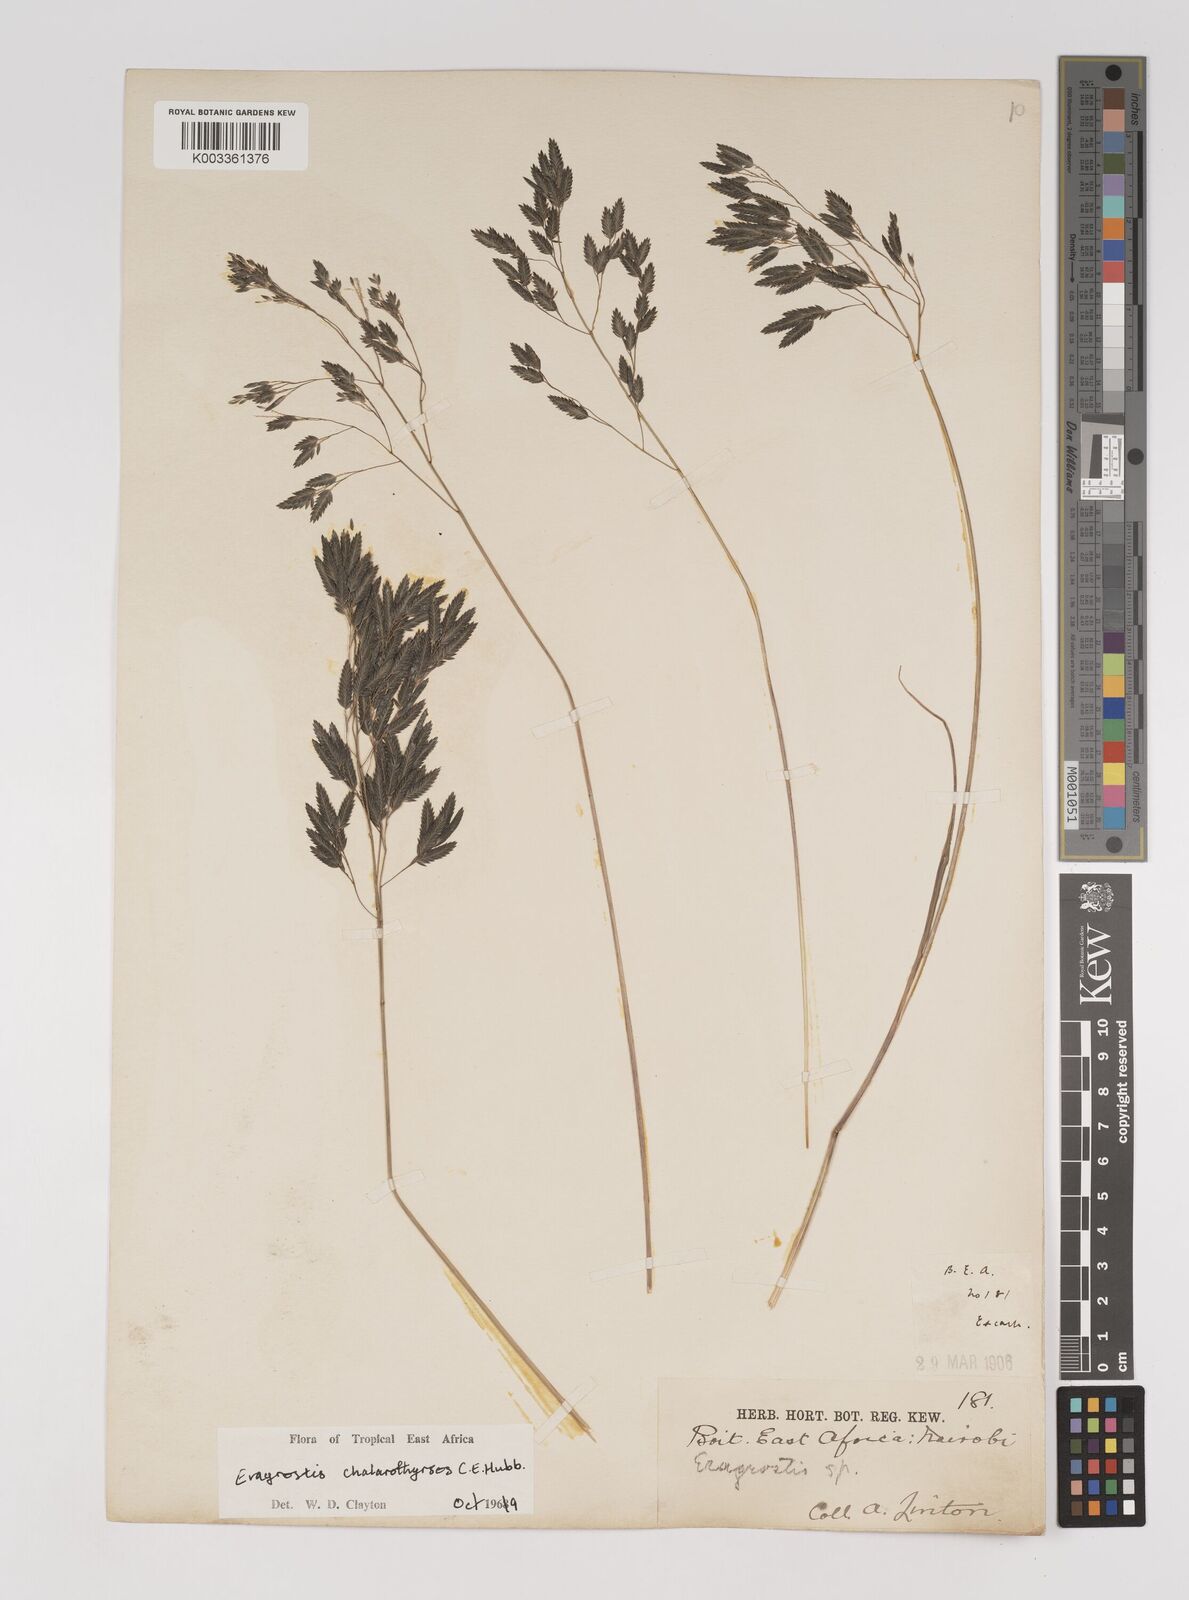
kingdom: Plantae
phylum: Tracheophyta
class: Liliopsida
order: Poales
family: Poaceae
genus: Eragrostis
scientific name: Eragrostis chalarothyrsos
